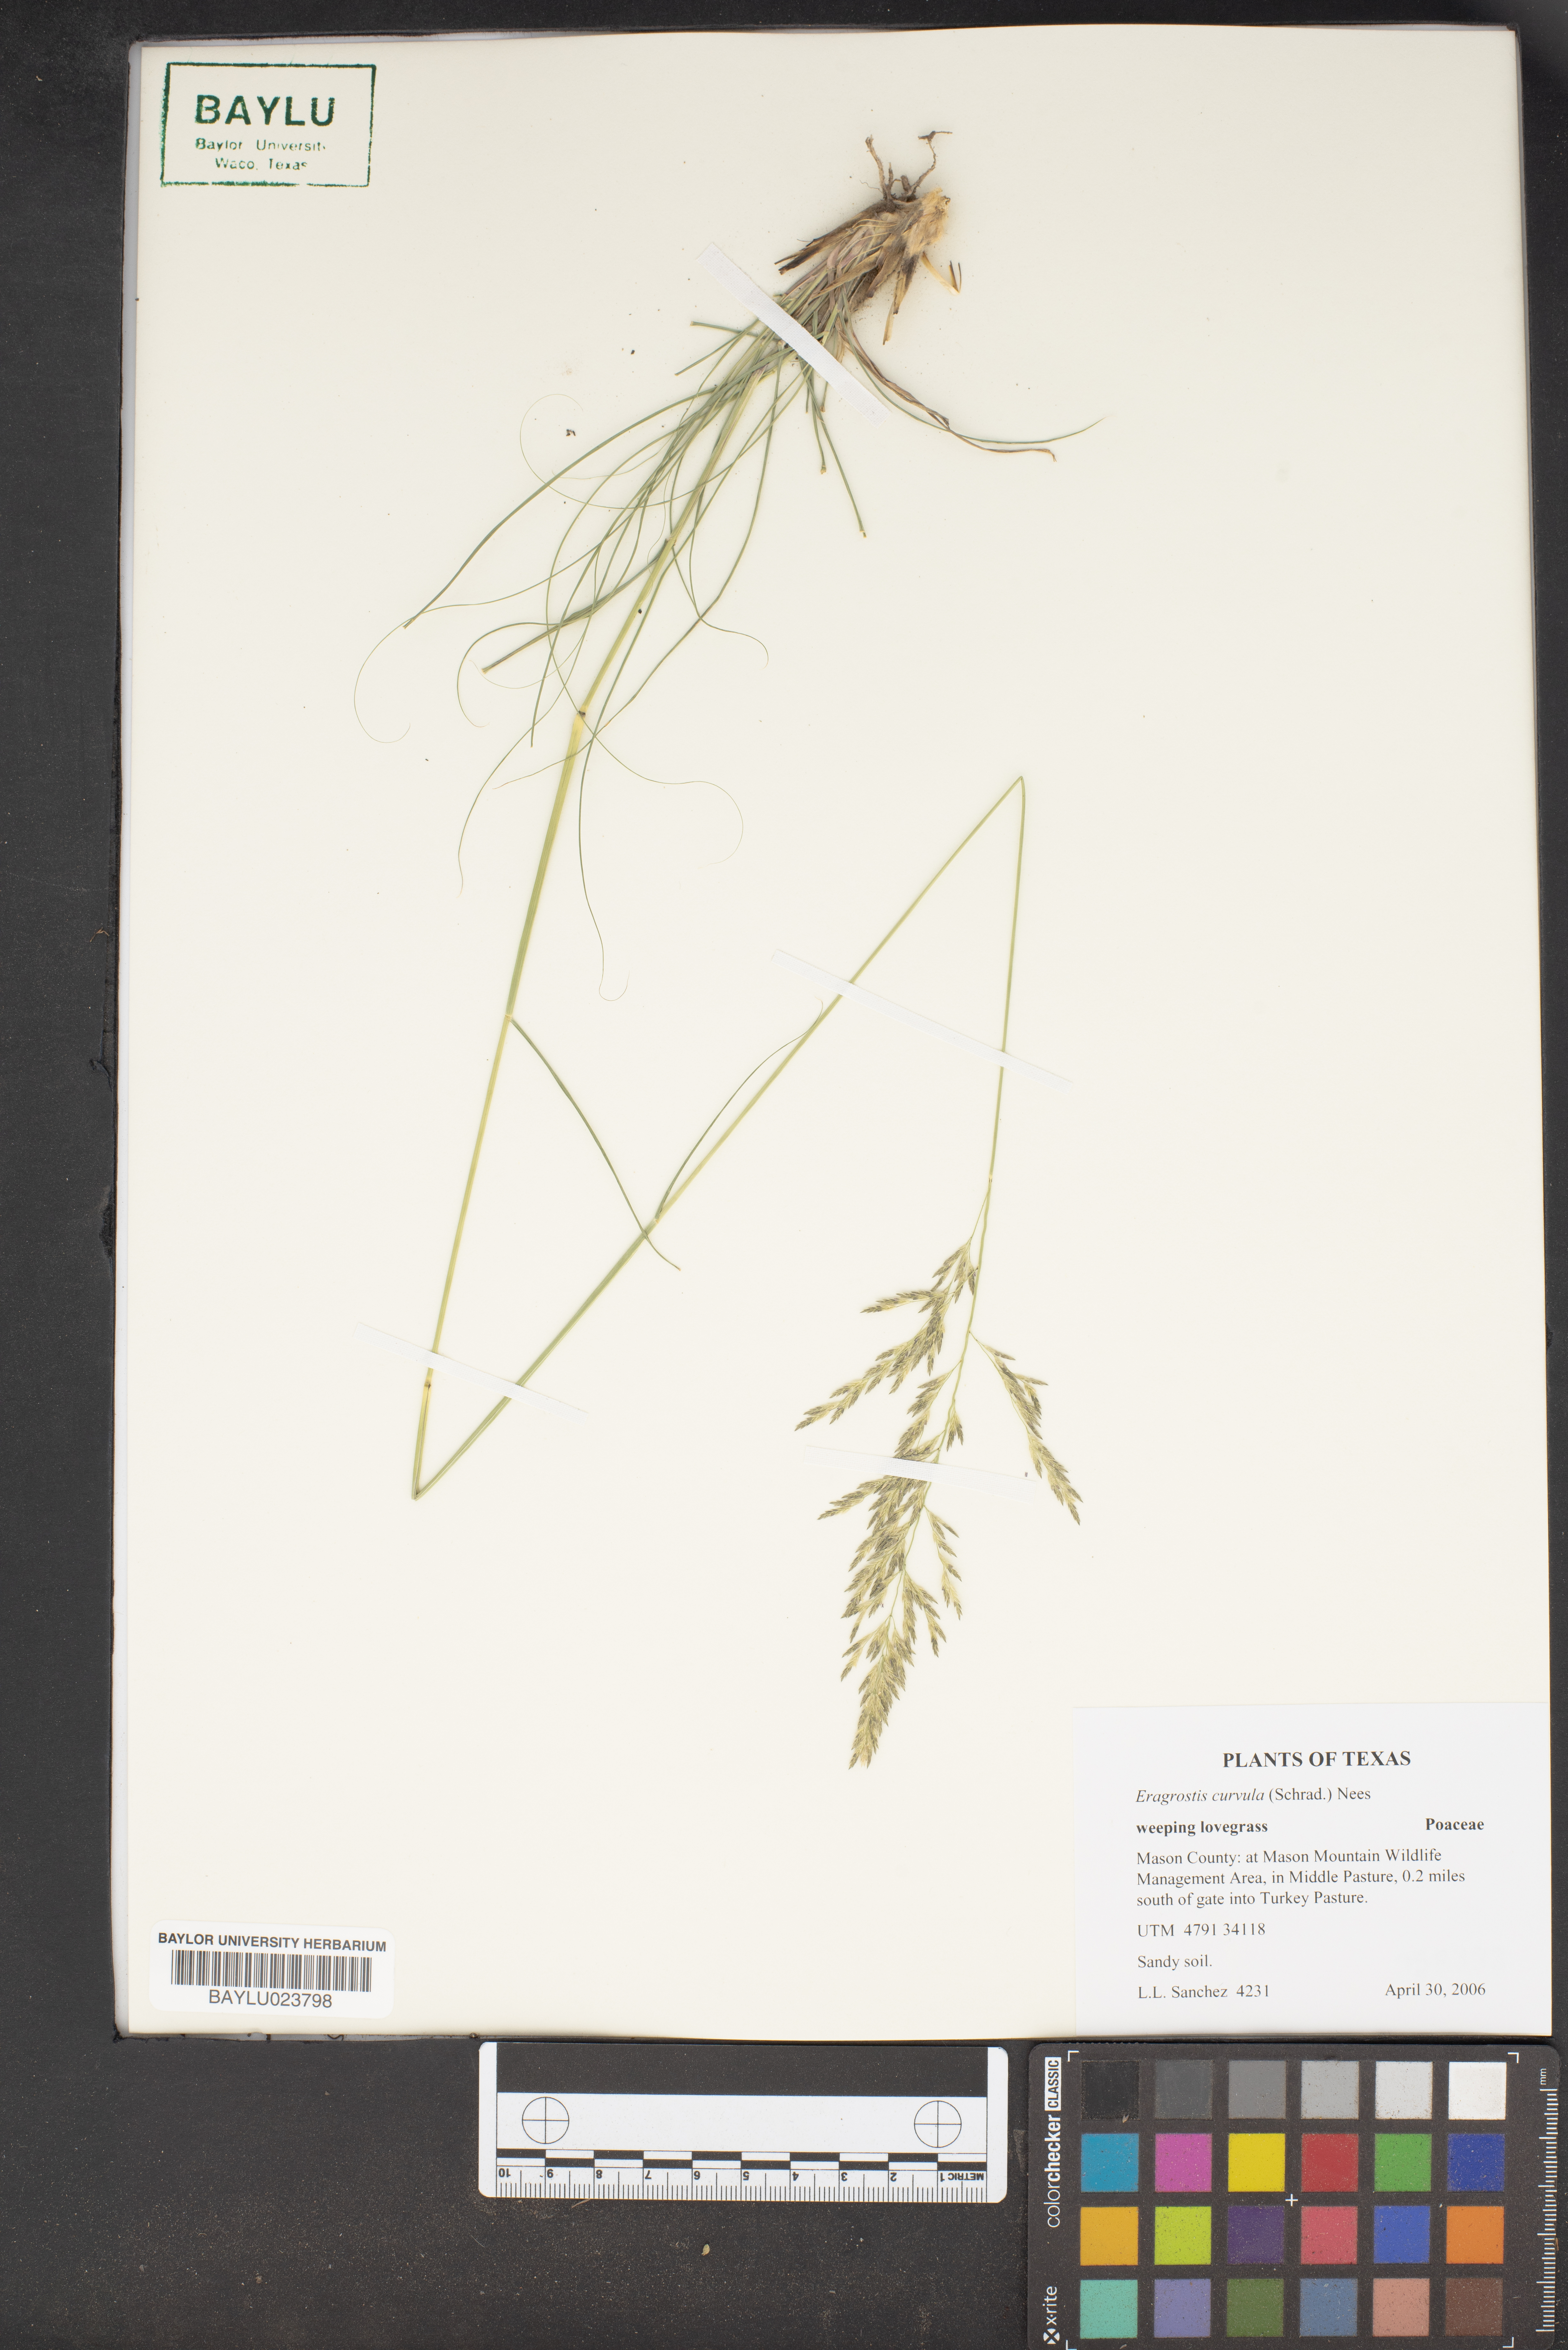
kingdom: Plantae
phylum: Tracheophyta
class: Liliopsida
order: Poales
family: Poaceae
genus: Eragrostis
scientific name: Eragrostis curvula
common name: African love-grass
